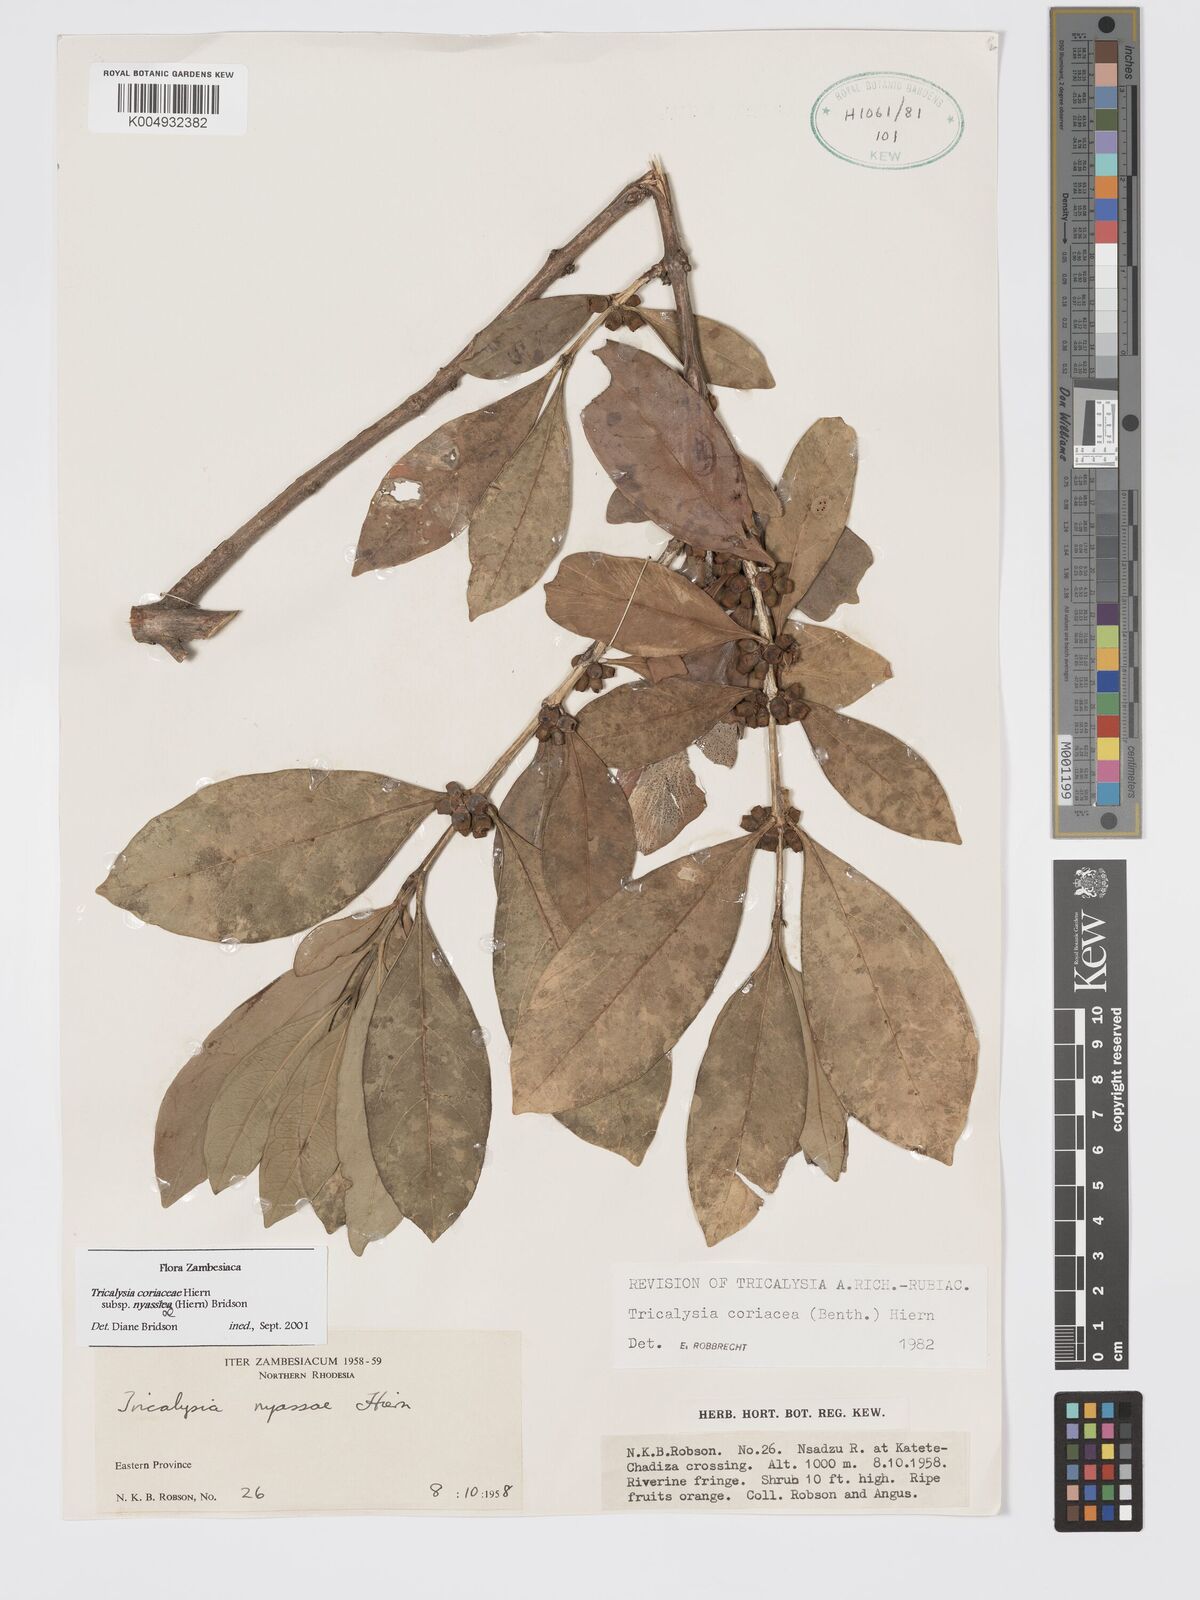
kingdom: Plantae
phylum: Tracheophyta
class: Magnoliopsida
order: Gentianales
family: Rubiaceae
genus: Tricalysia
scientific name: Tricalysia coriacea
